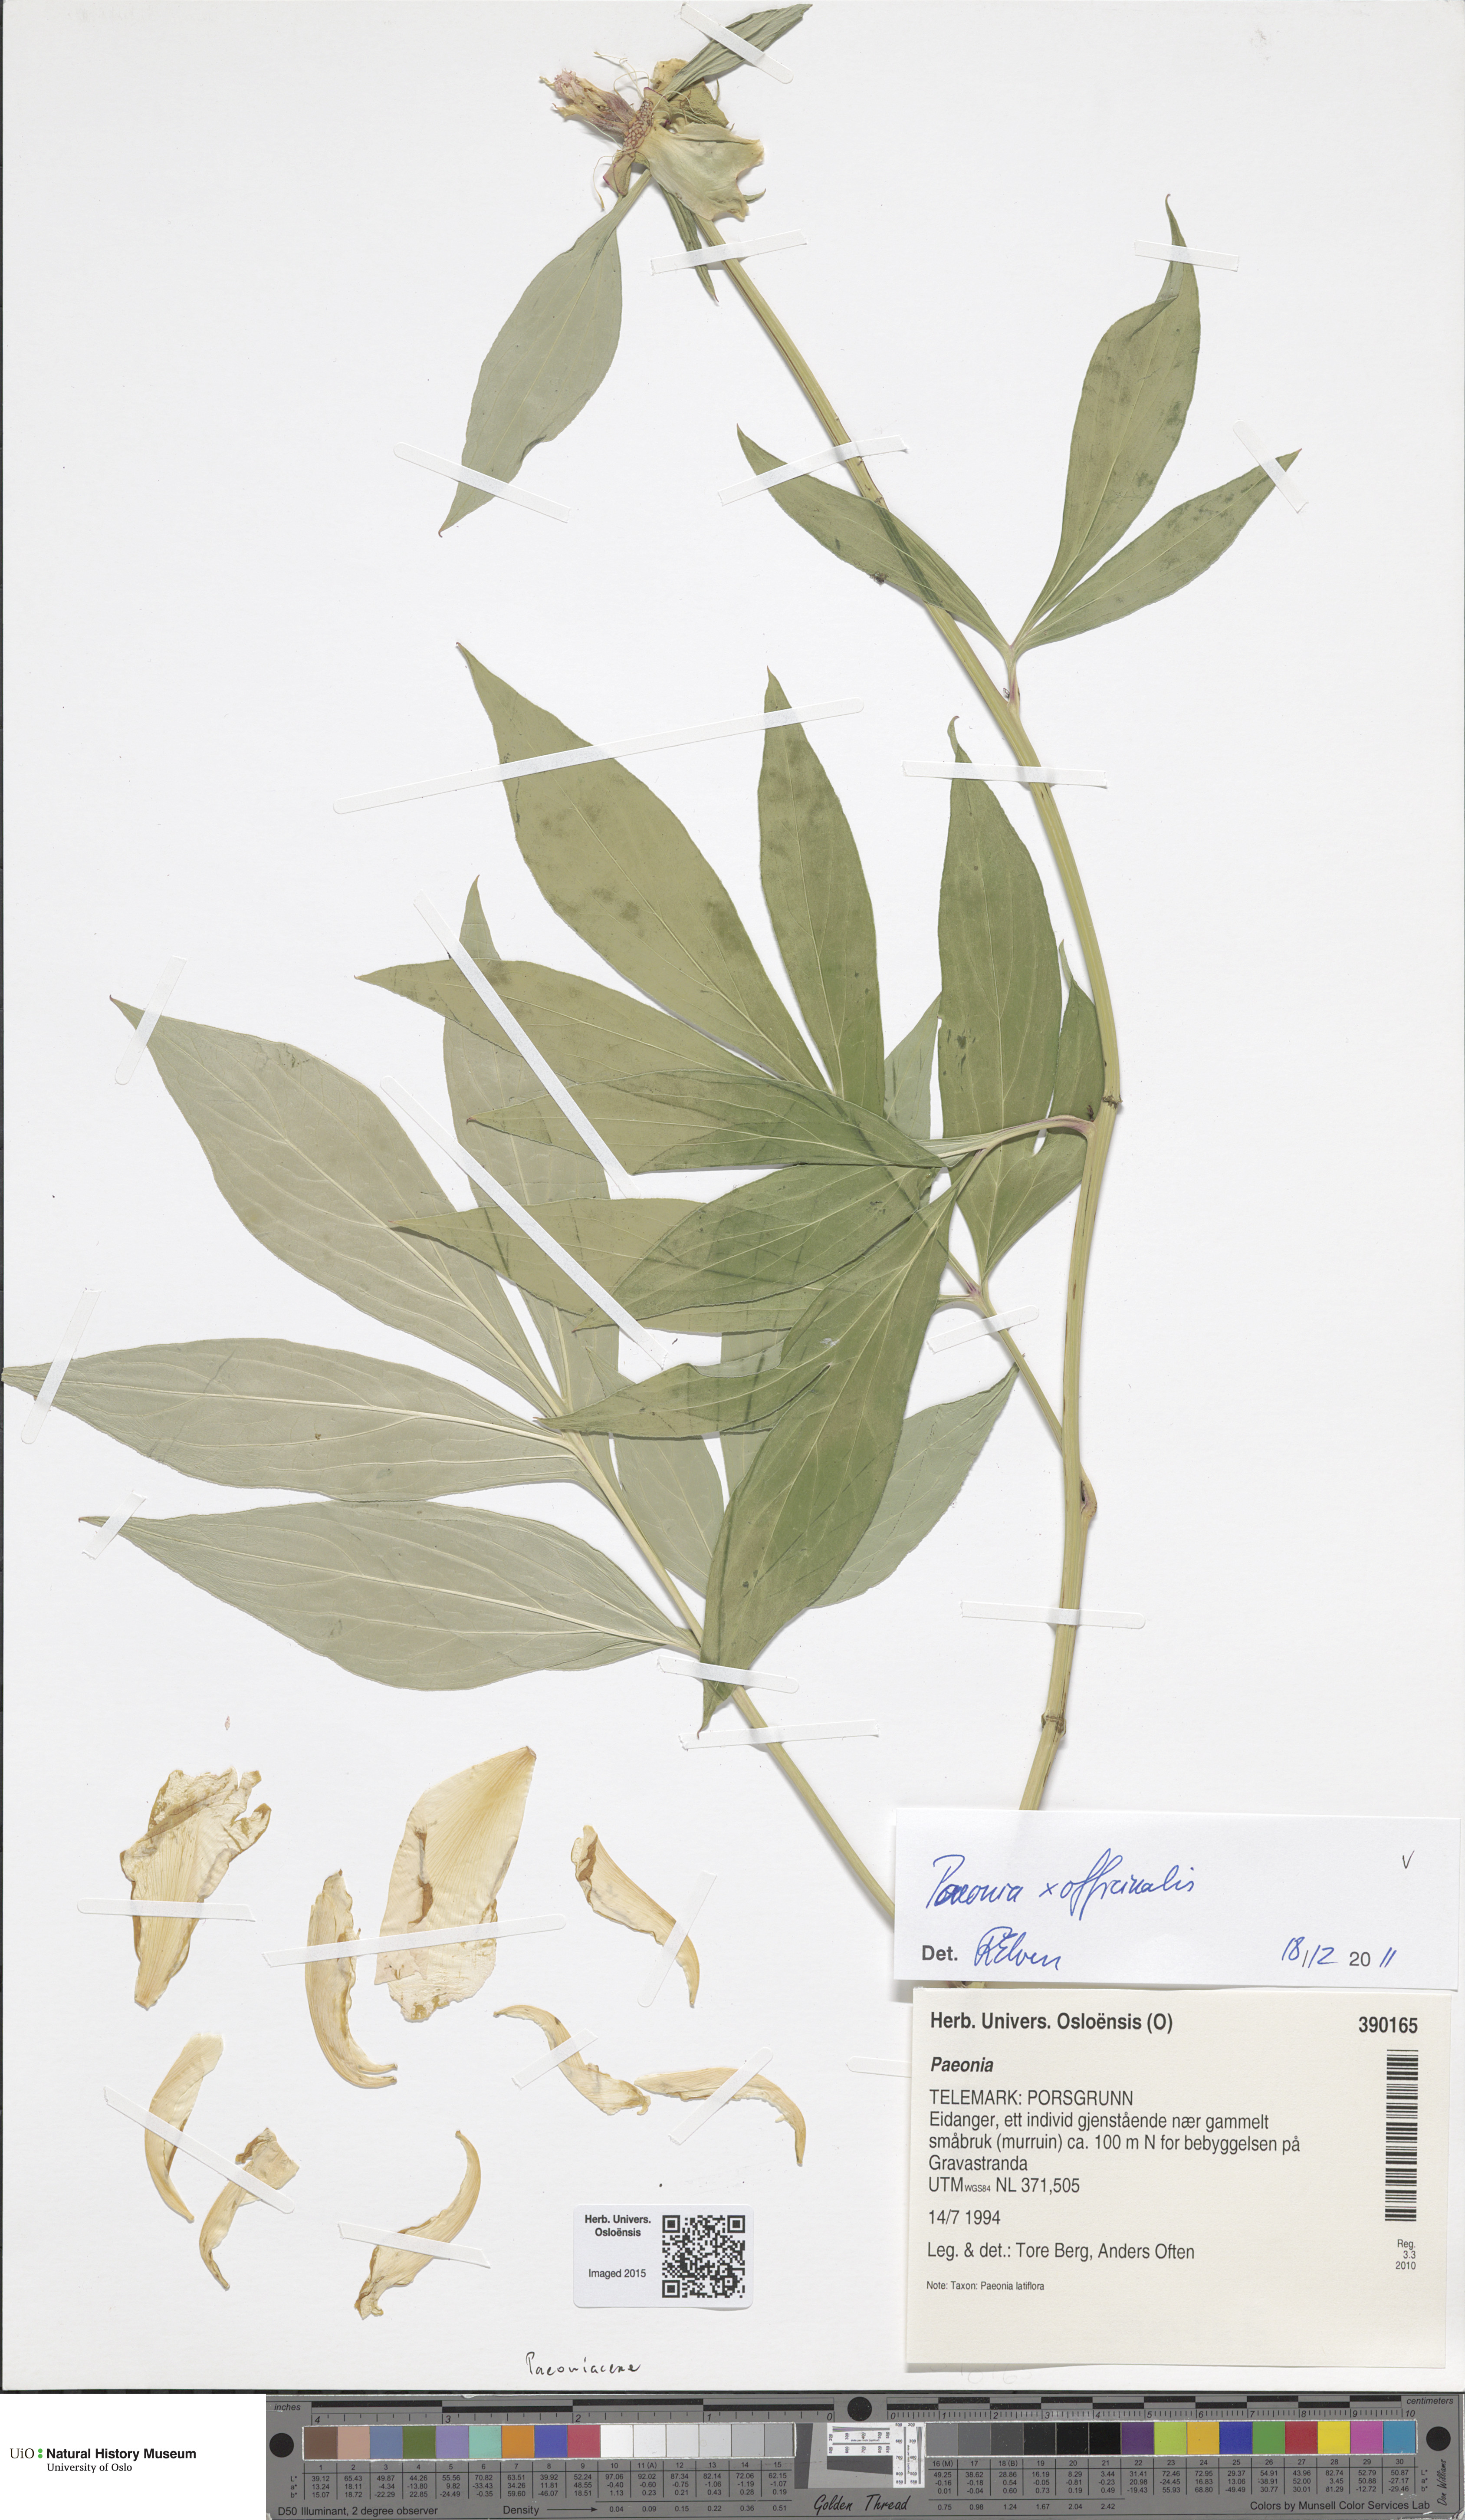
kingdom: Plantae
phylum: Tracheophyta
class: Magnoliopsida
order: Saxifragales
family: Paeoniaceae
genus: Paeonia
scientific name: Paeonia officinalis
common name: Common peony
